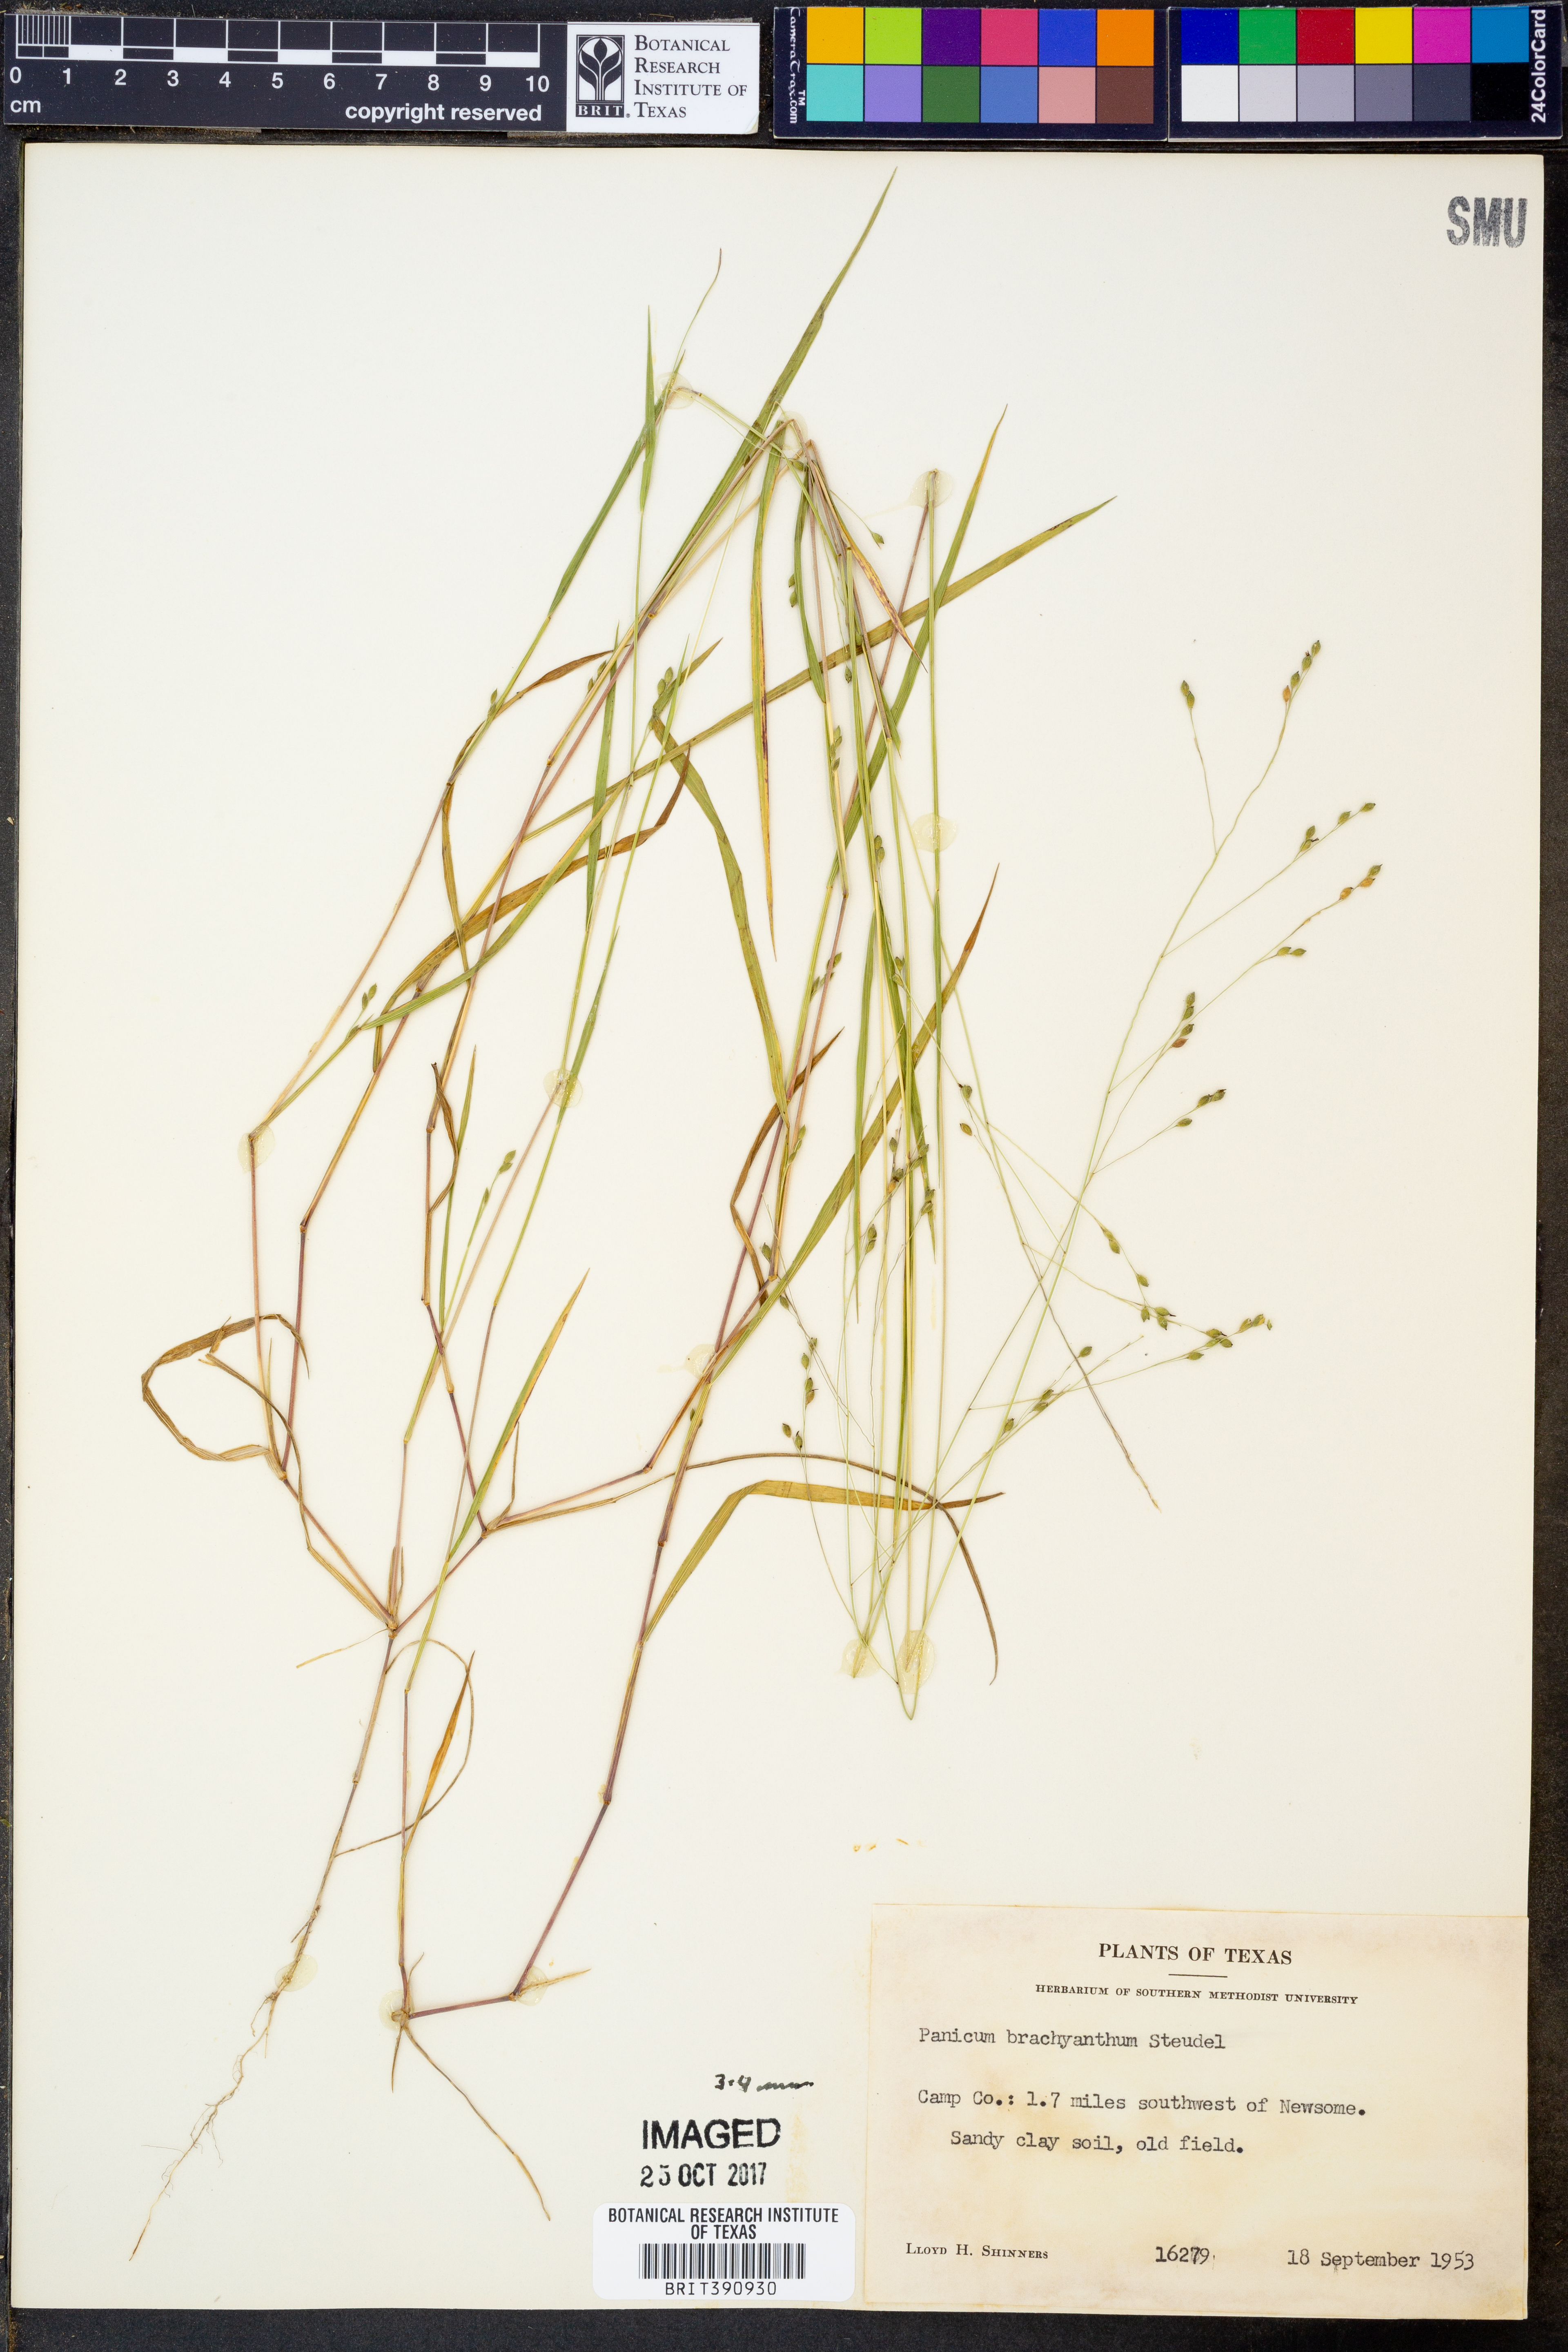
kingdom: Plantae
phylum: Tracheophyta
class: Liliopsida
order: Poales
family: Poaceae
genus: Kellochloa
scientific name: Kellochloa brachyantha
